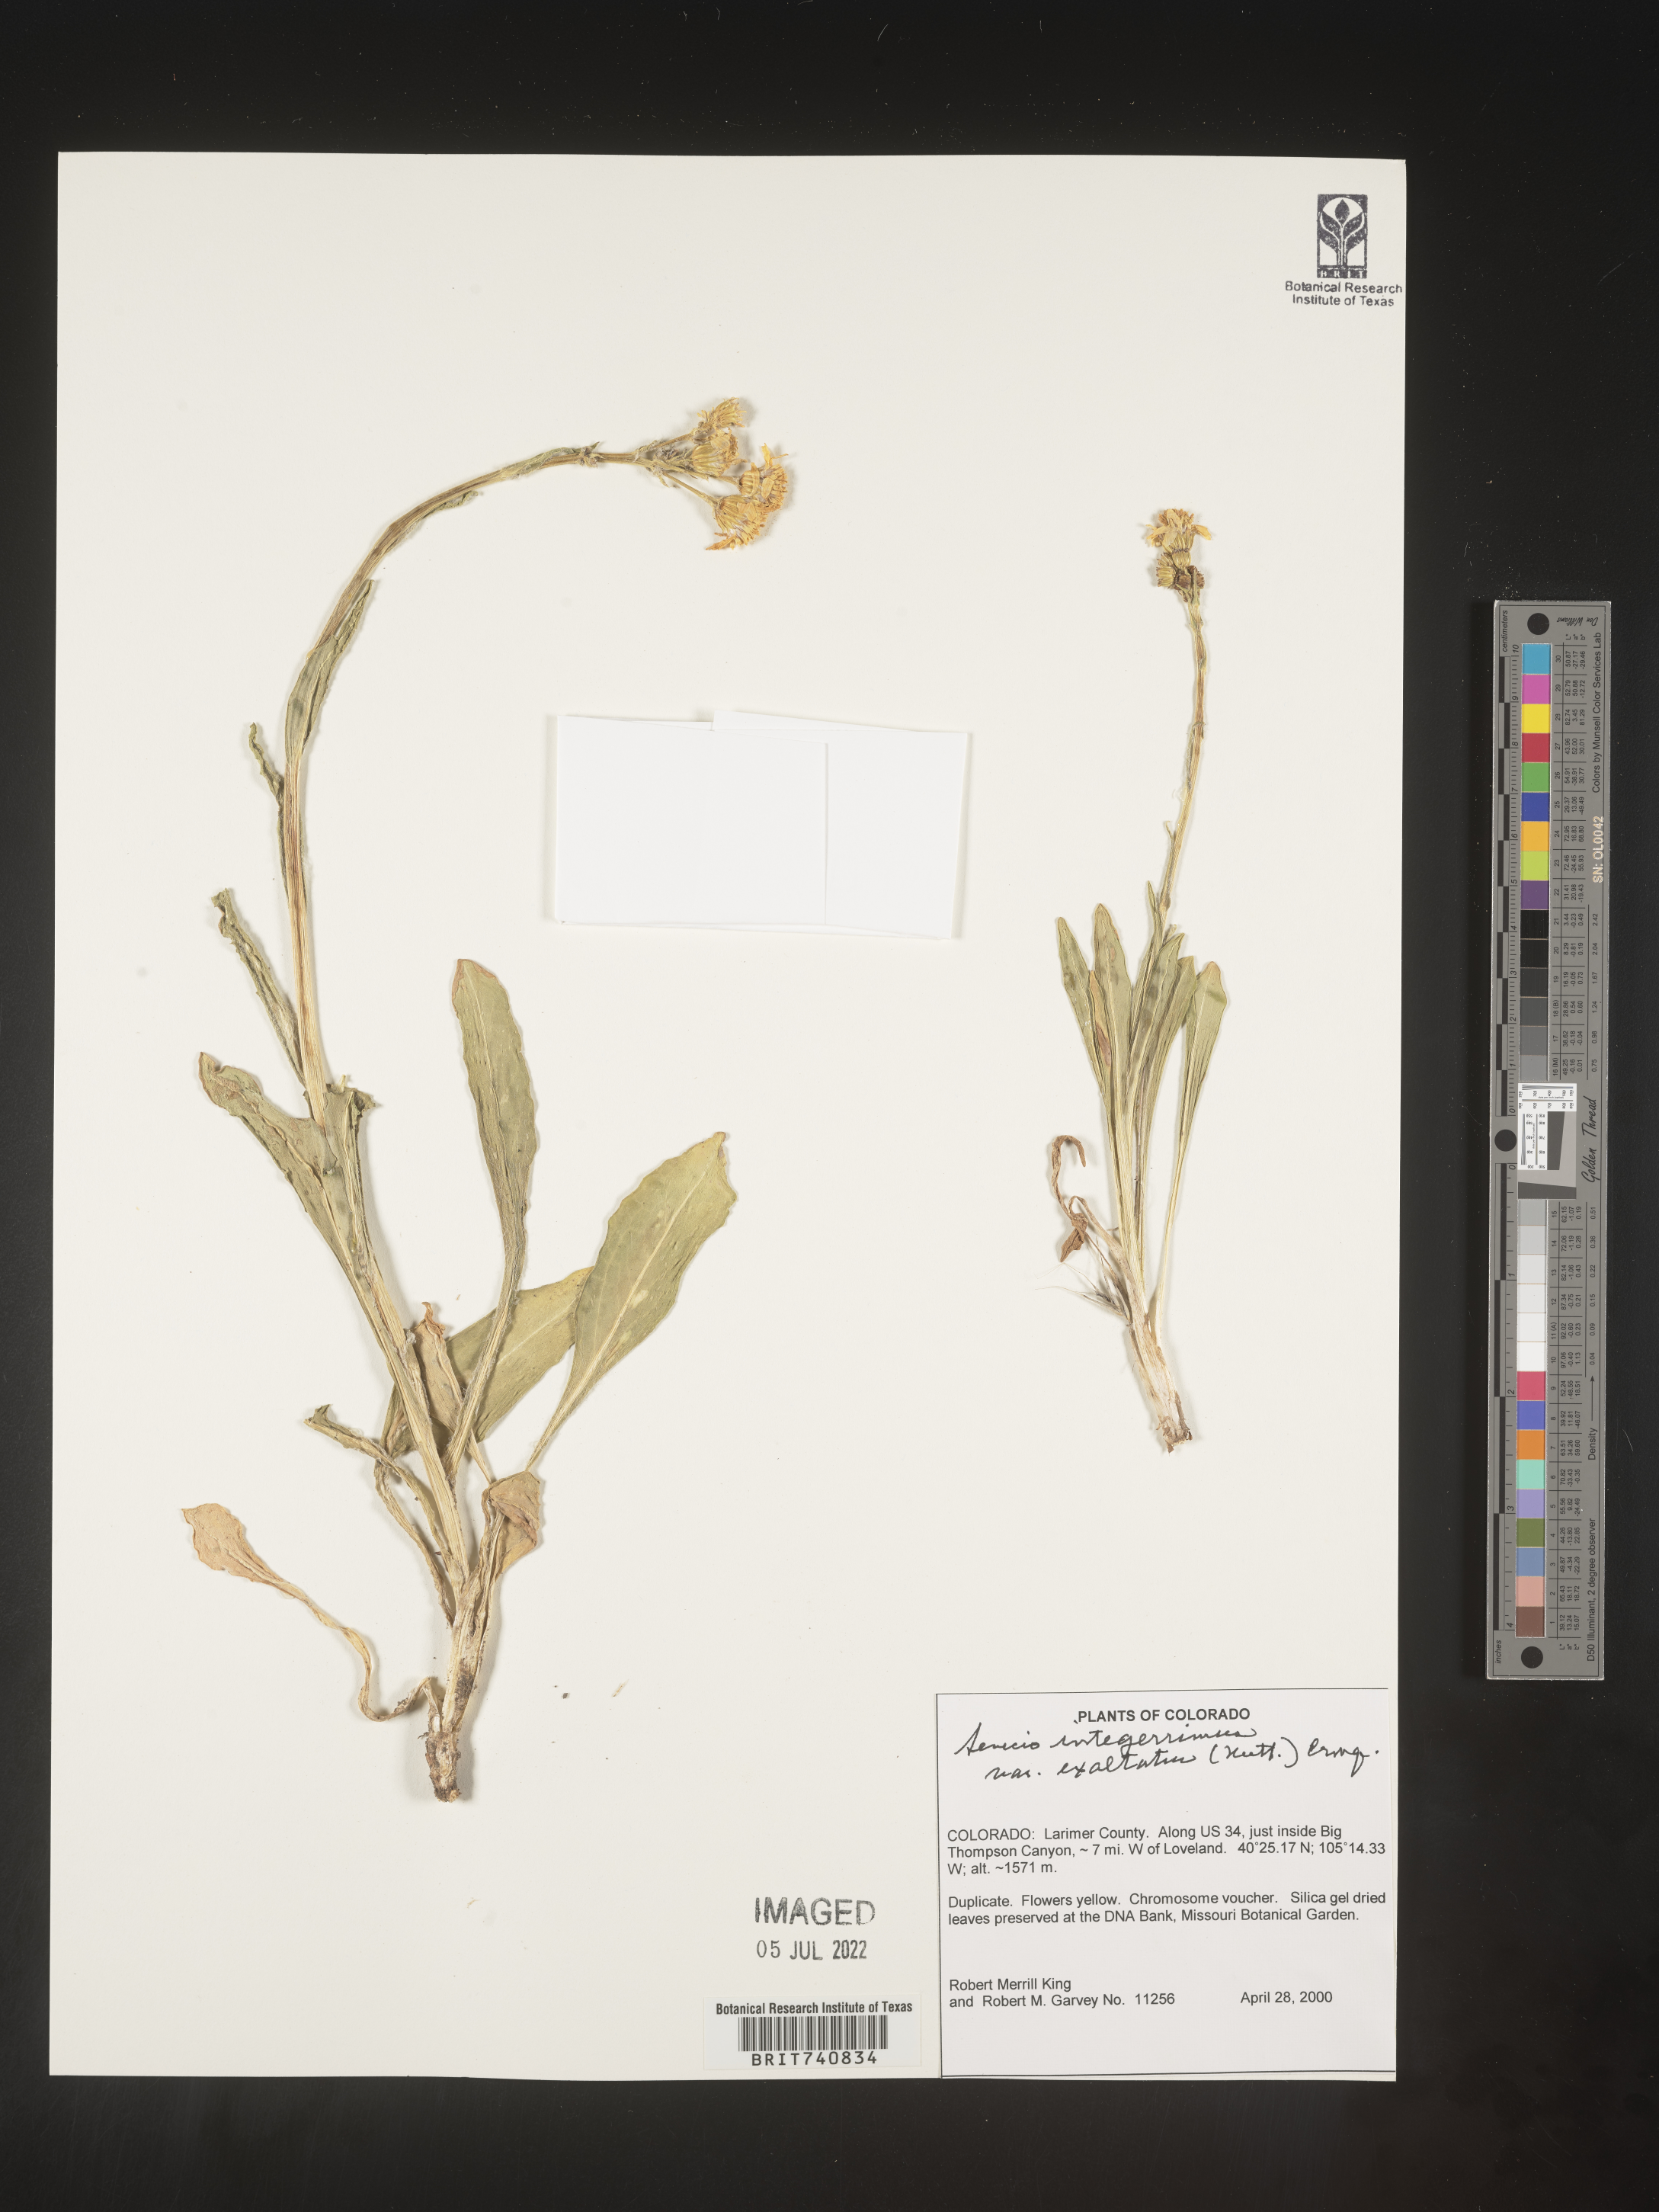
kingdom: Plantae
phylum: Tracheophyta
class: Magnoliopsida
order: Asterales
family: Asteraceae
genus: Senecio
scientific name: Senecio integerrimus
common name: Gaugeplant
